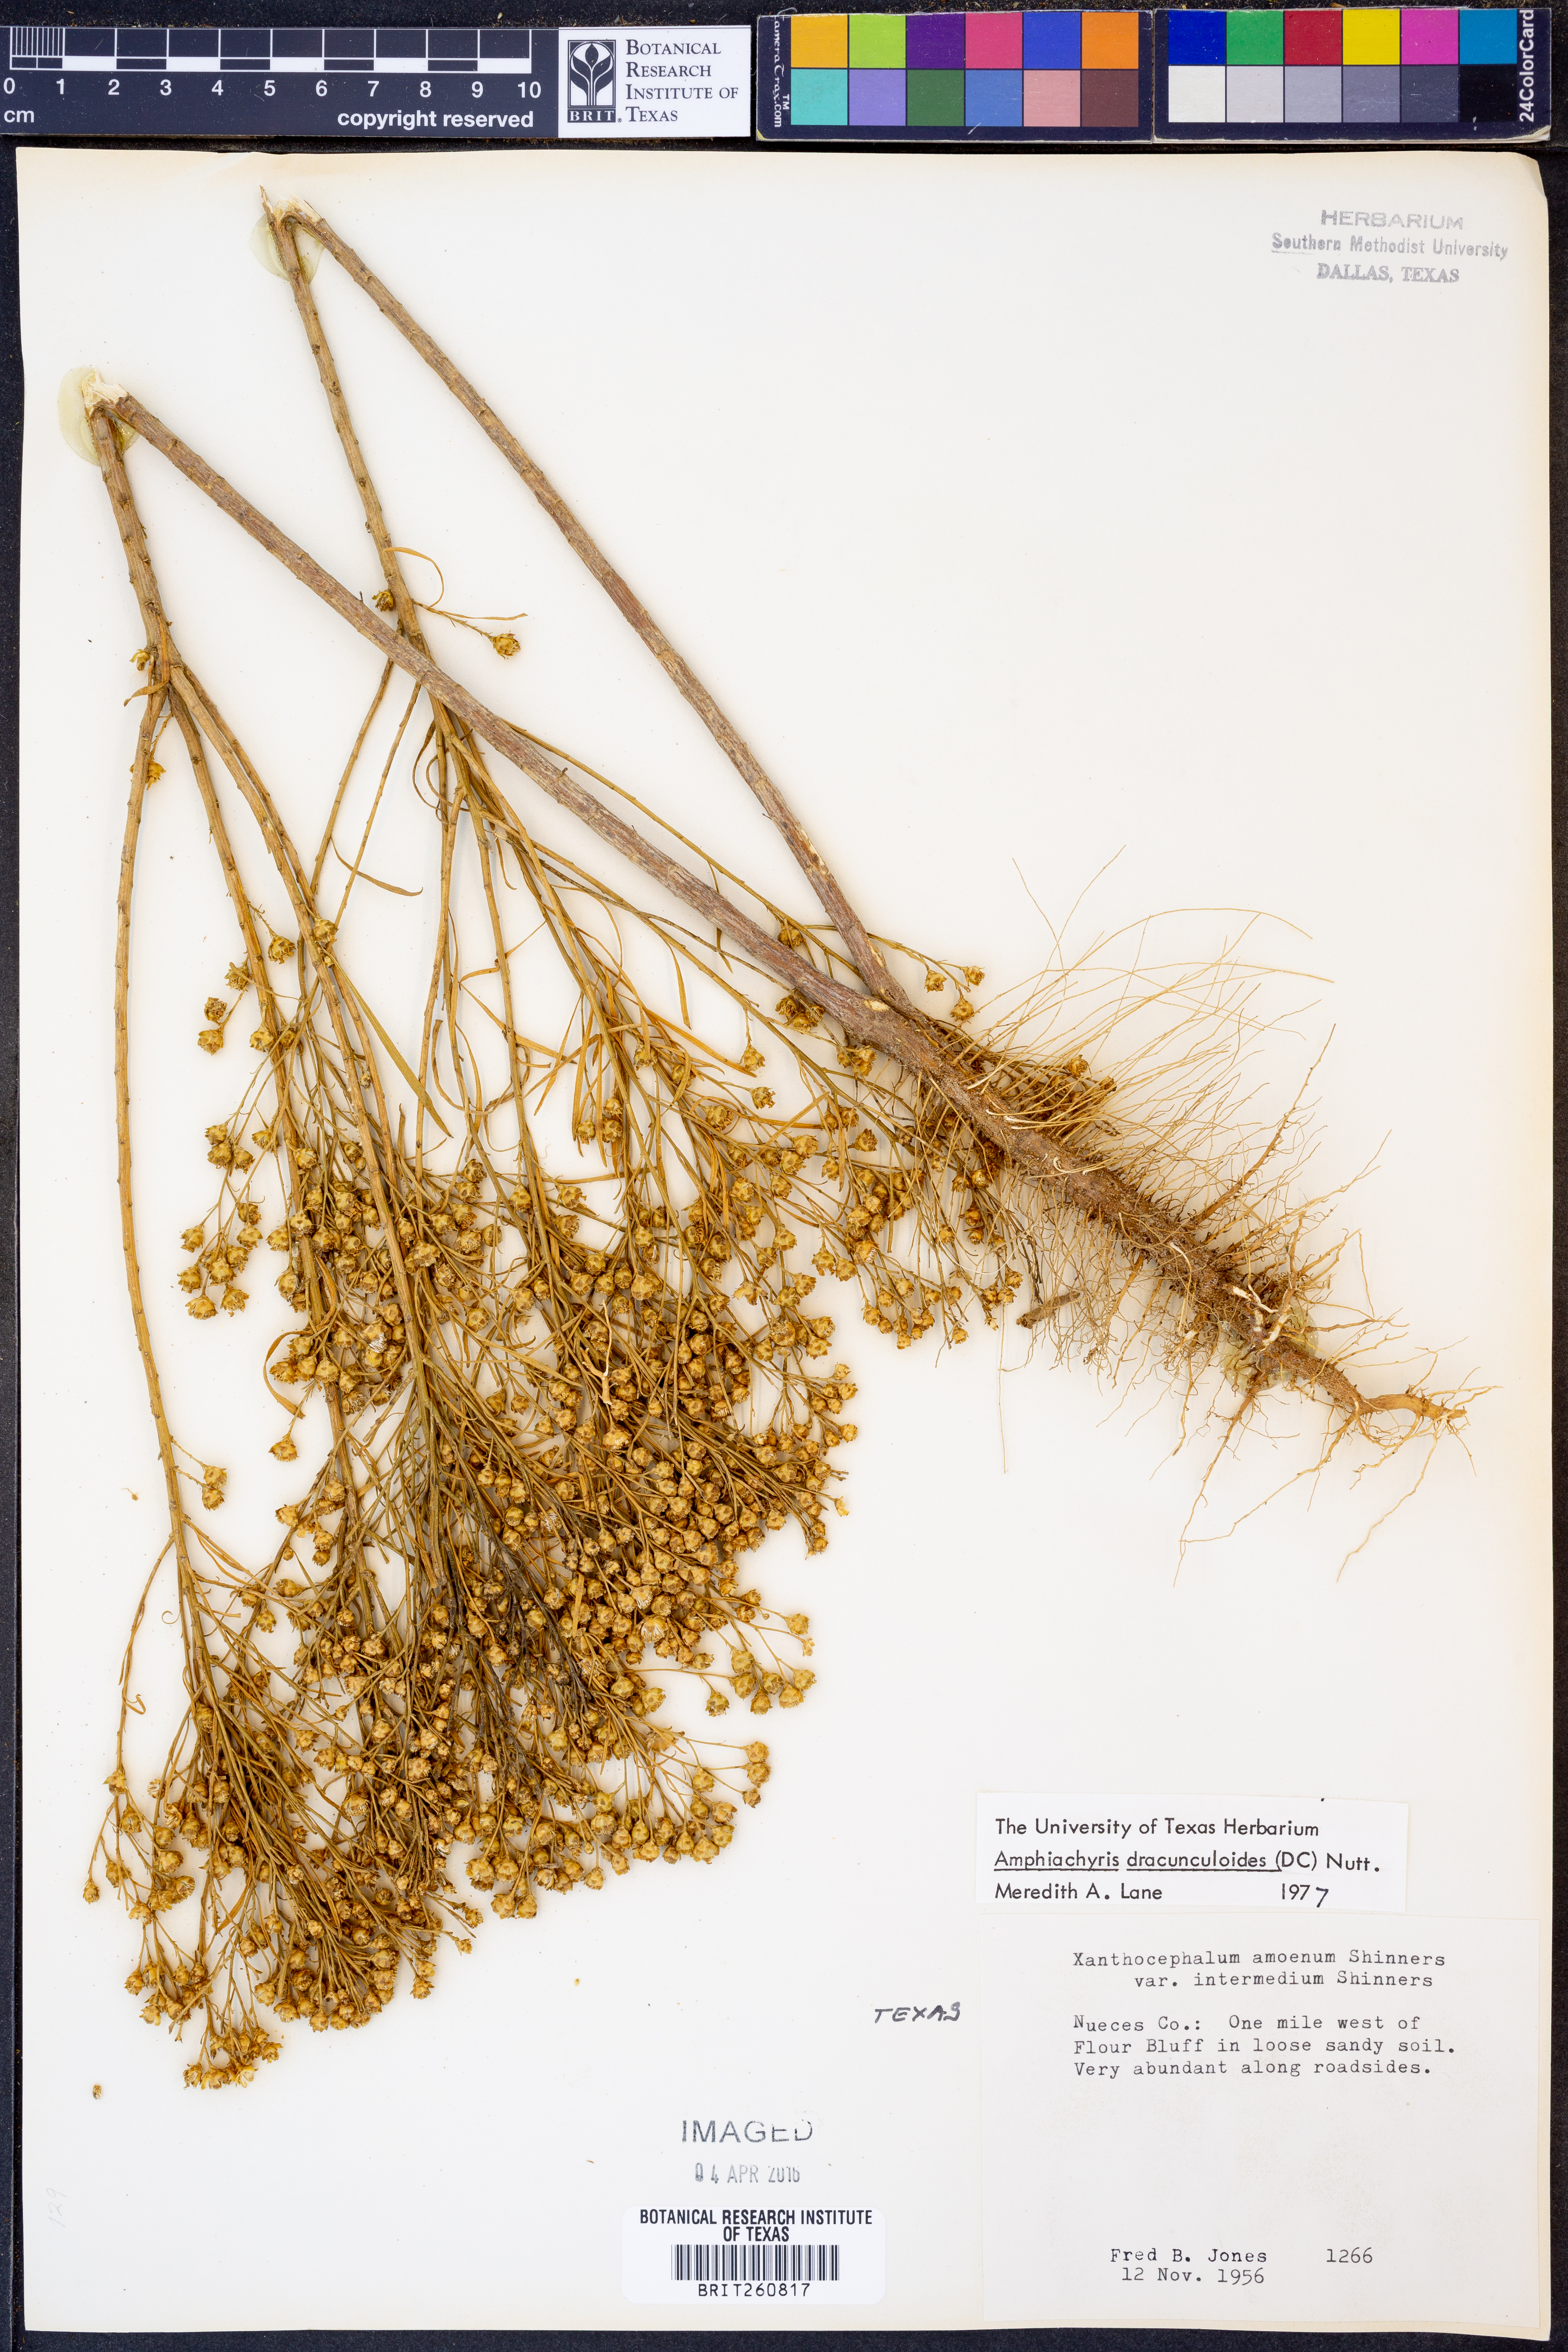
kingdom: Plantae
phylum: Tracheophyta
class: Magnoliopsida
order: Asterales
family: Asteraceae
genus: Amphiachyris
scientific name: Amphiachyris dracunculoides
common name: Broomweed
